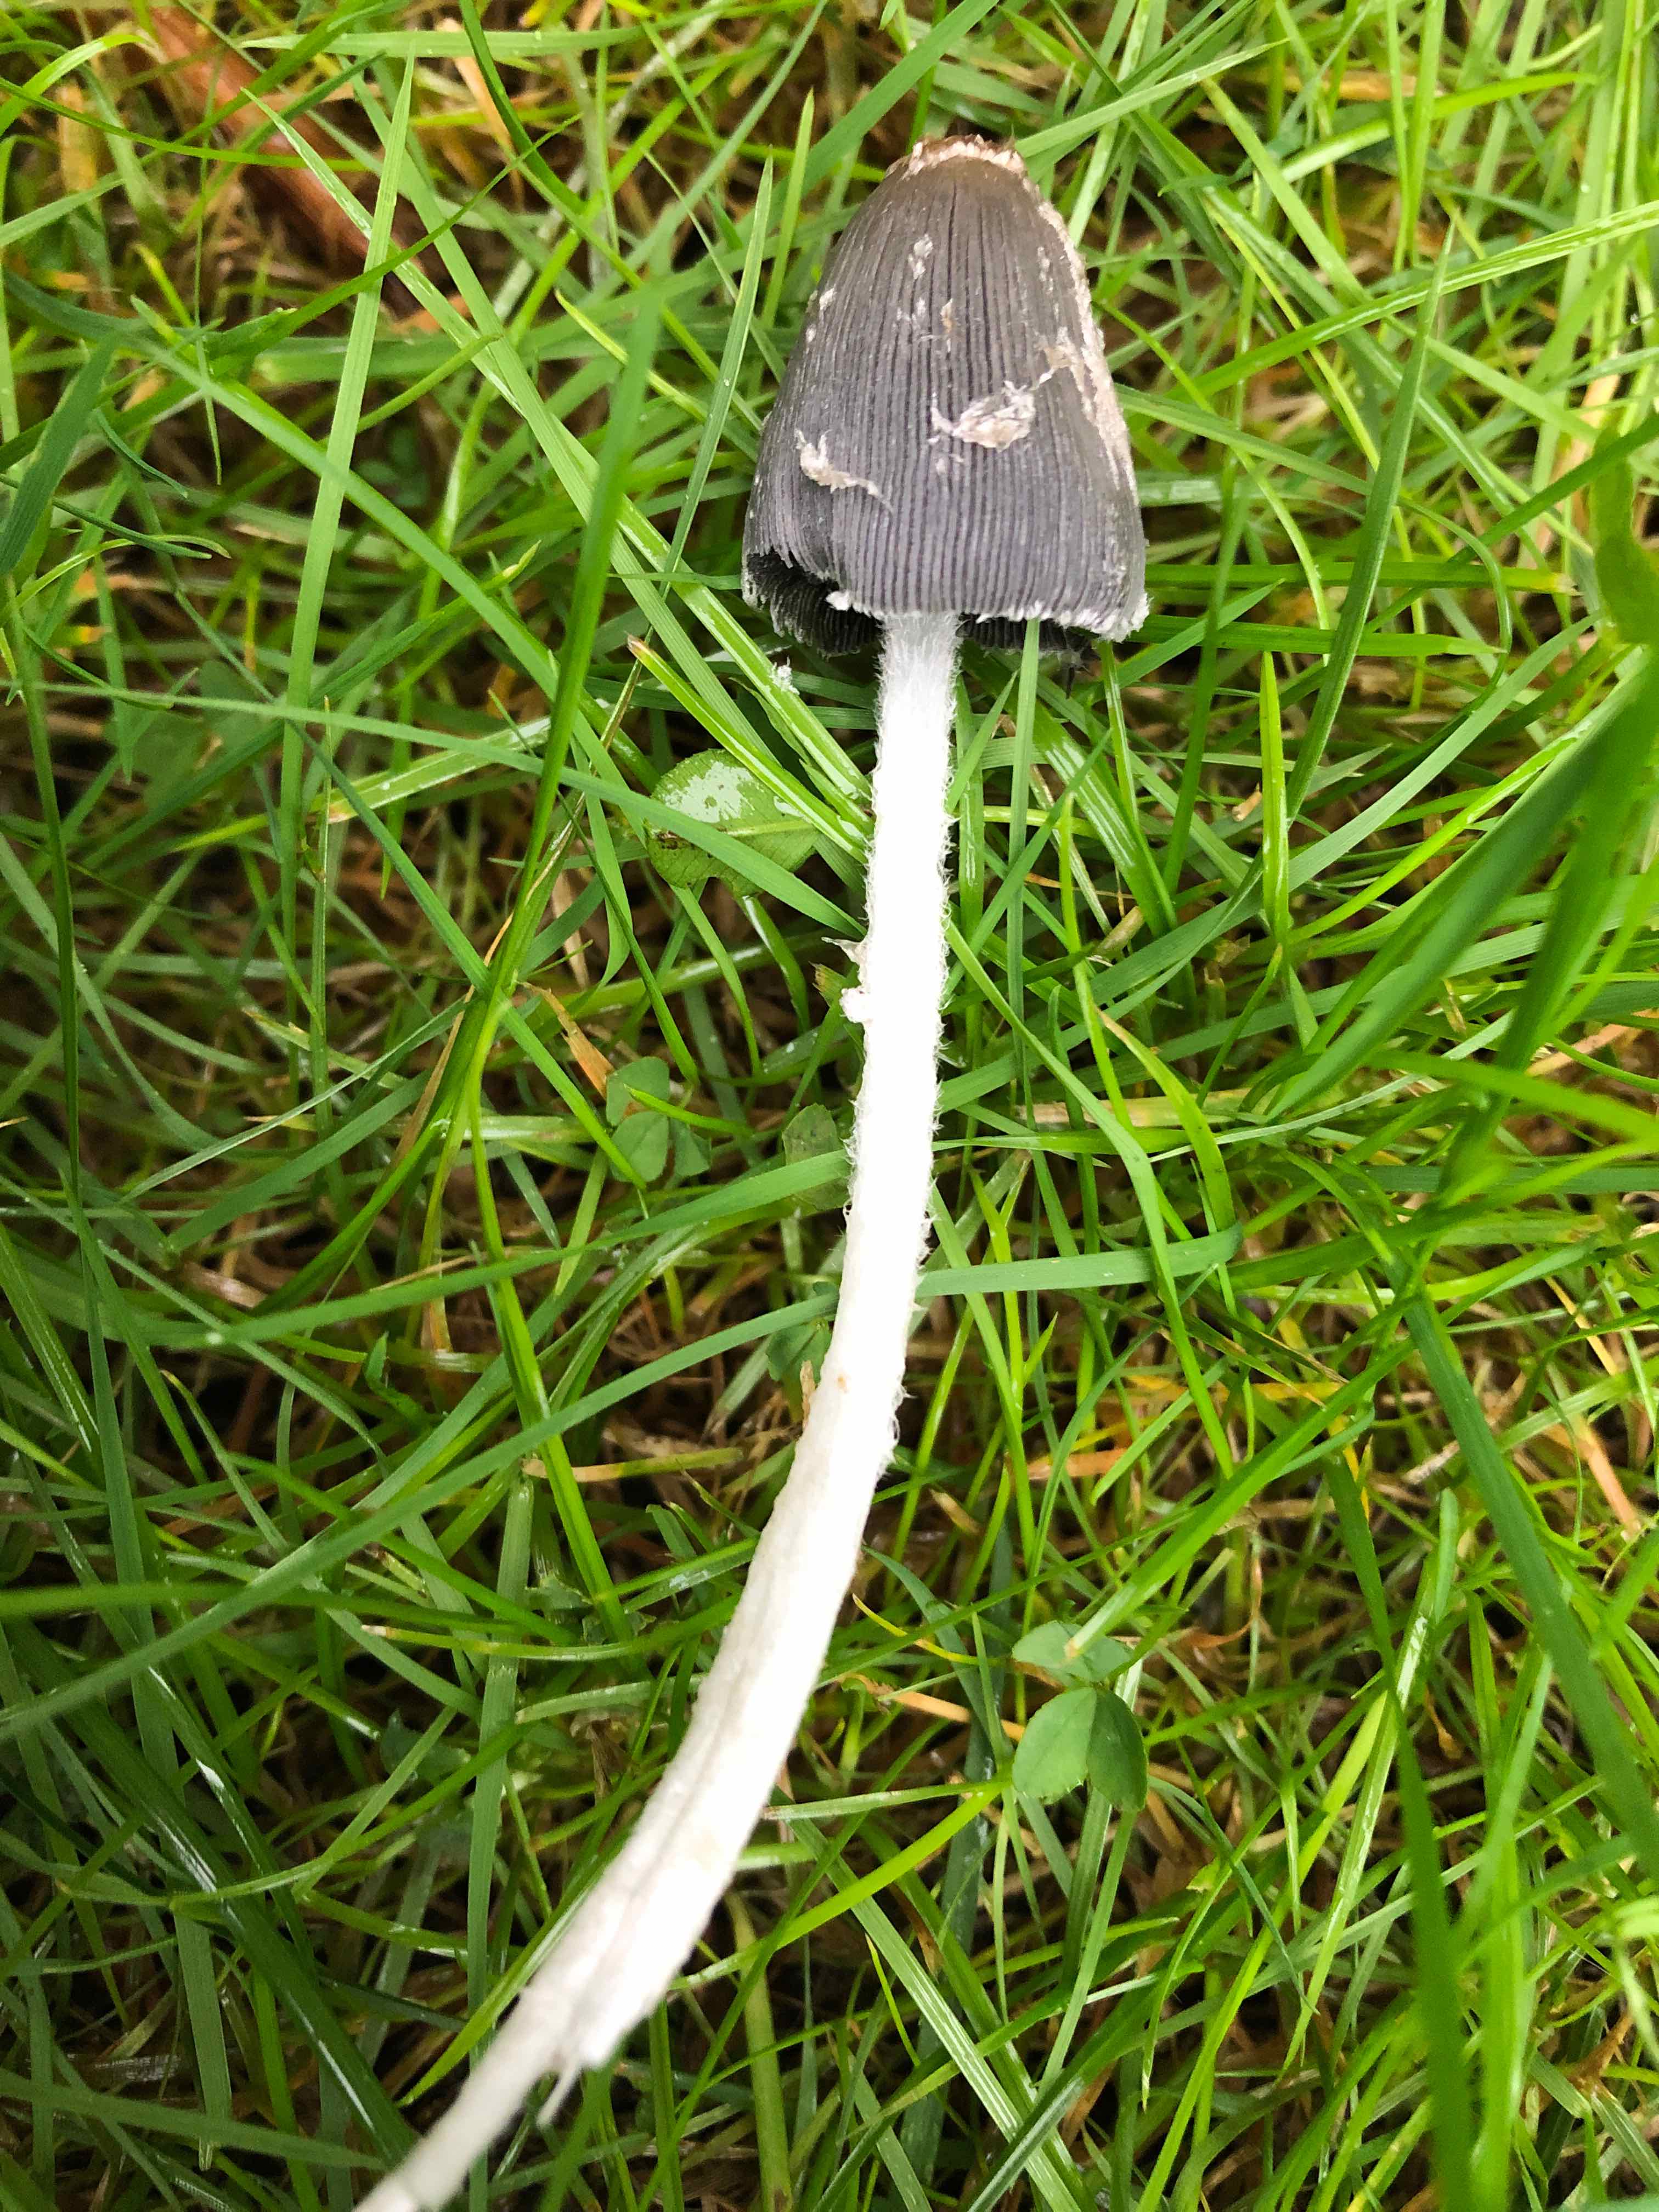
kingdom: Fungi
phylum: Basidiomycota
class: Agaricomycetes
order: Agaricales
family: Psathyrellaceae
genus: Coprinopsis
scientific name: Coprinopsis
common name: blækhat
